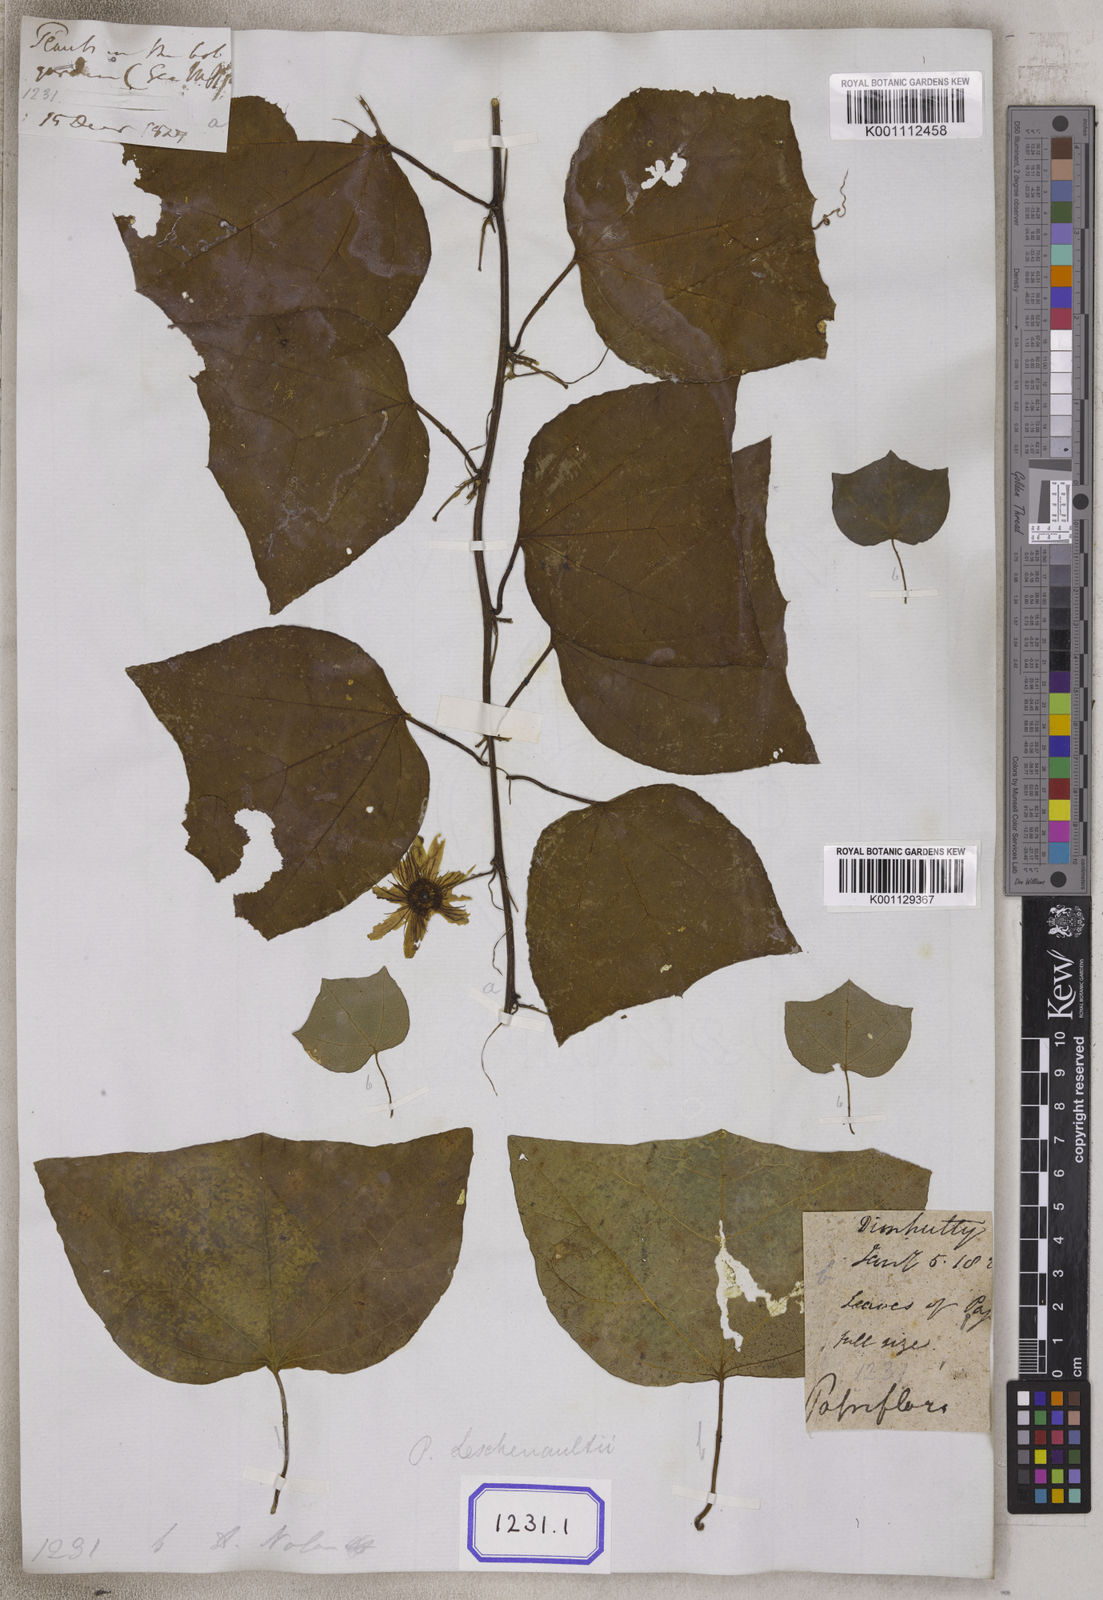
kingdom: Plantae
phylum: Tracheophyta
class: Magnoliopsida
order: Malpighiales
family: Passifloraceae
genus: Passiflora
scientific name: Passiflora leschenaultii
